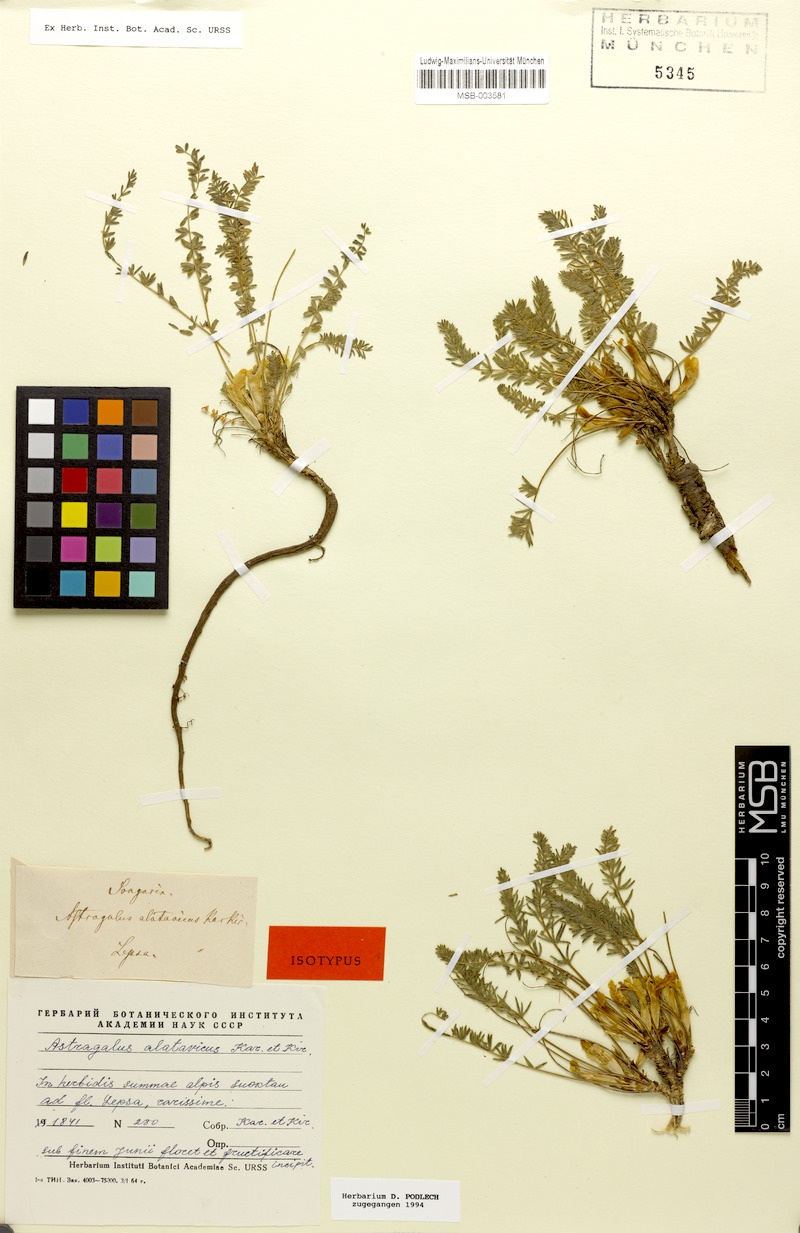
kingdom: Plantae
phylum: Tracheophyta
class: Magnoliopsida
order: Fabales
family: Fabaceae
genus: Astragalus
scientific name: Astragalus alatavicus
